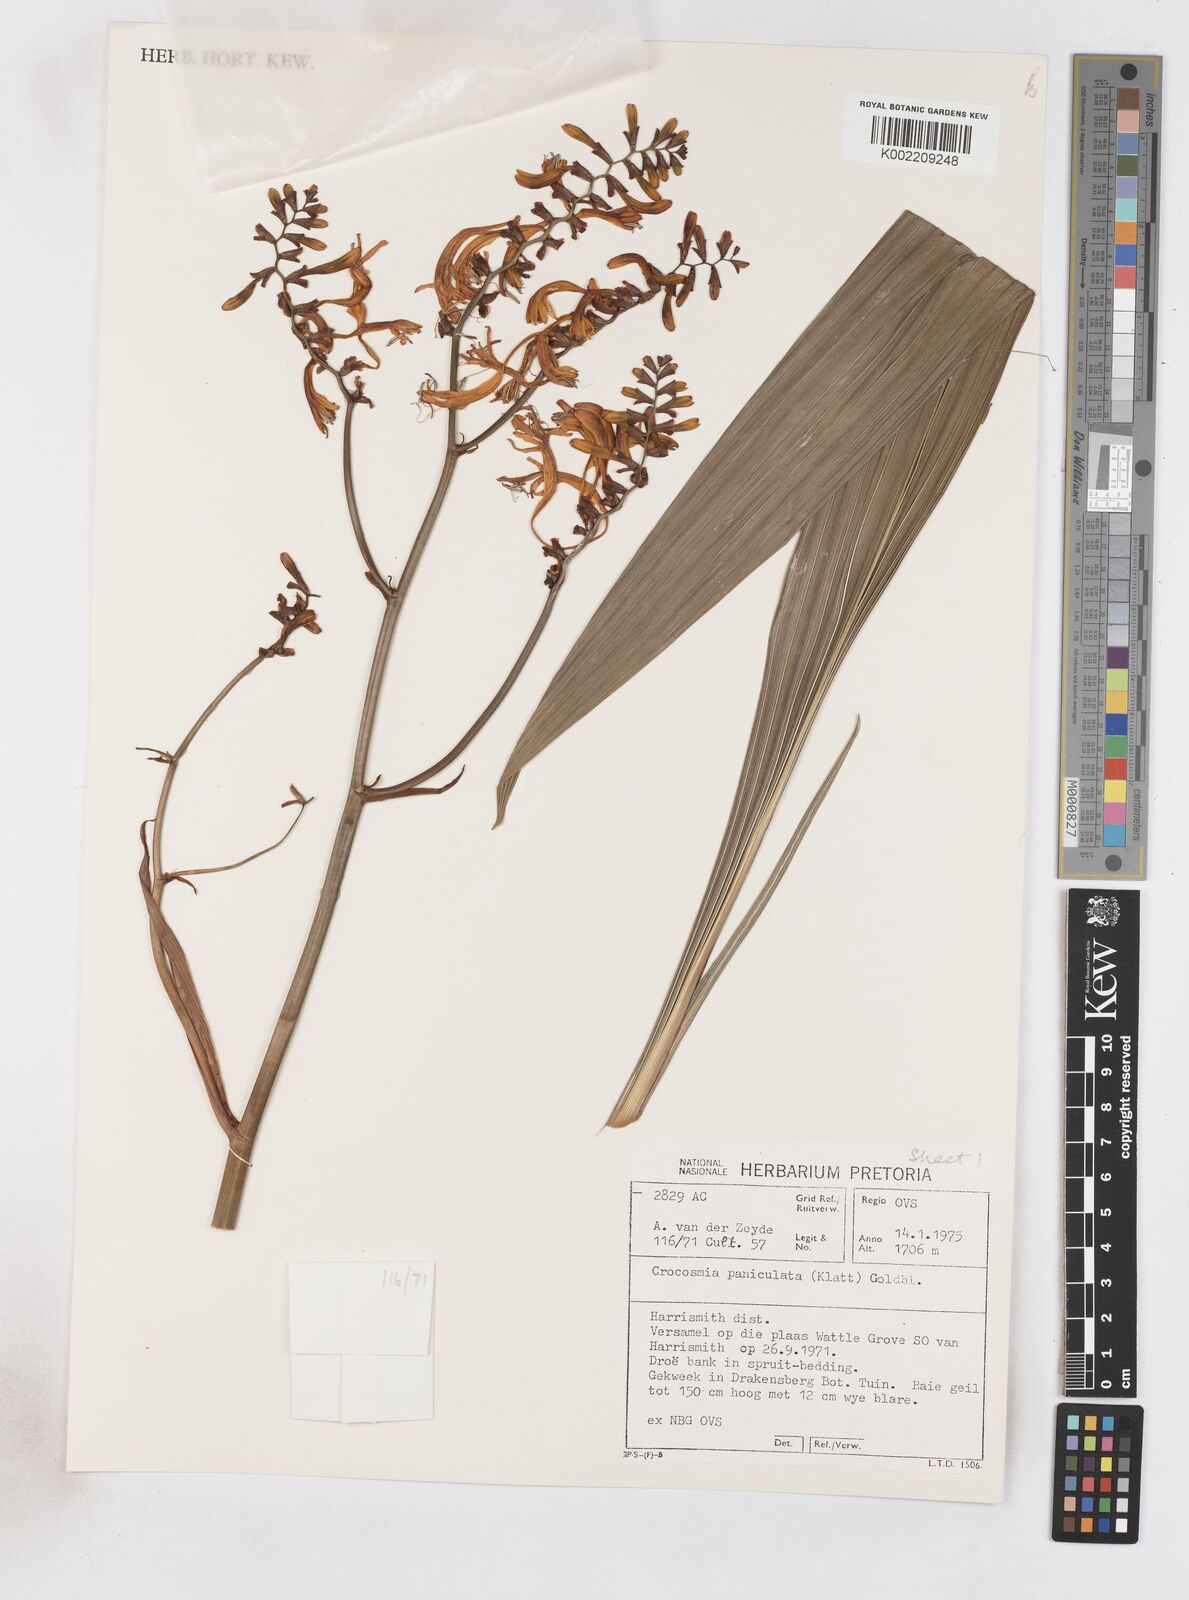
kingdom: Plantae
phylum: Tracheophyta
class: Liliopsida
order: Asparagales
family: Iridaceae
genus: Crocosmia
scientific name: Crocosmia paniculata
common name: Aunt eliza
